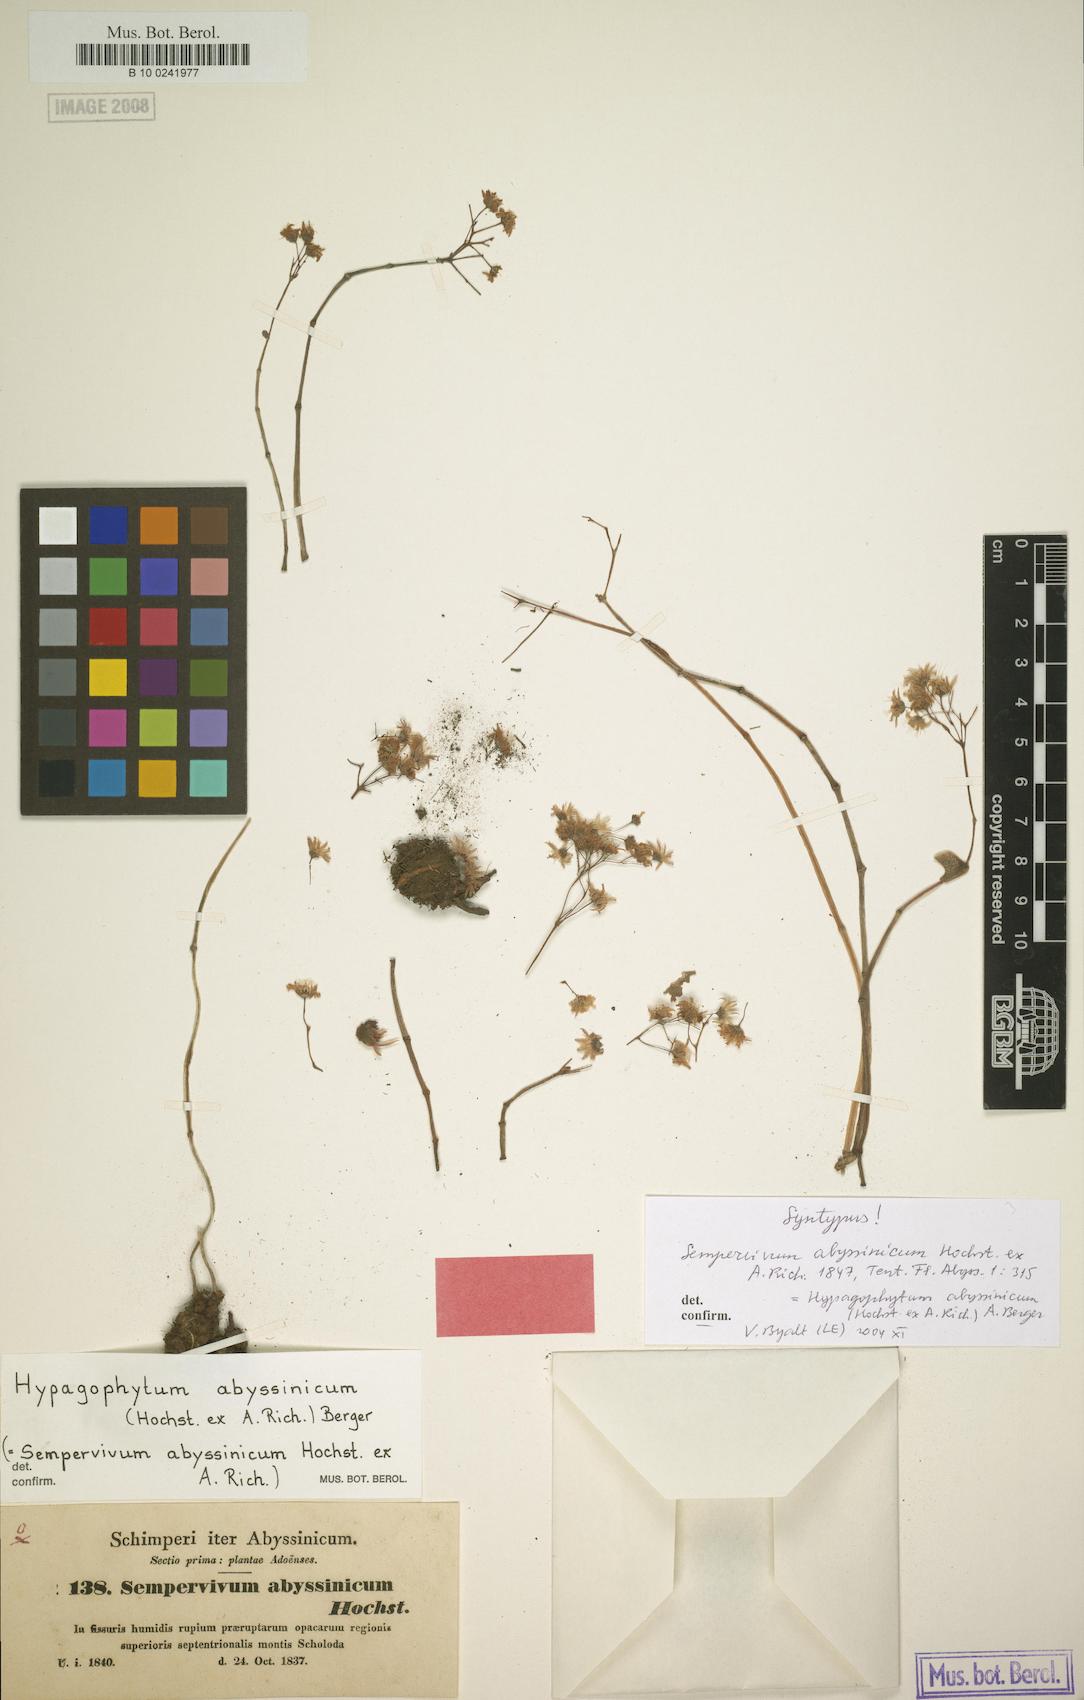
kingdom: Plantae
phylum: Tracheophyta
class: Magnoliopsida
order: Saxifragales
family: Crassulaceae
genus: Hypagophytum
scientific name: Hypagophytum abyssinicum
